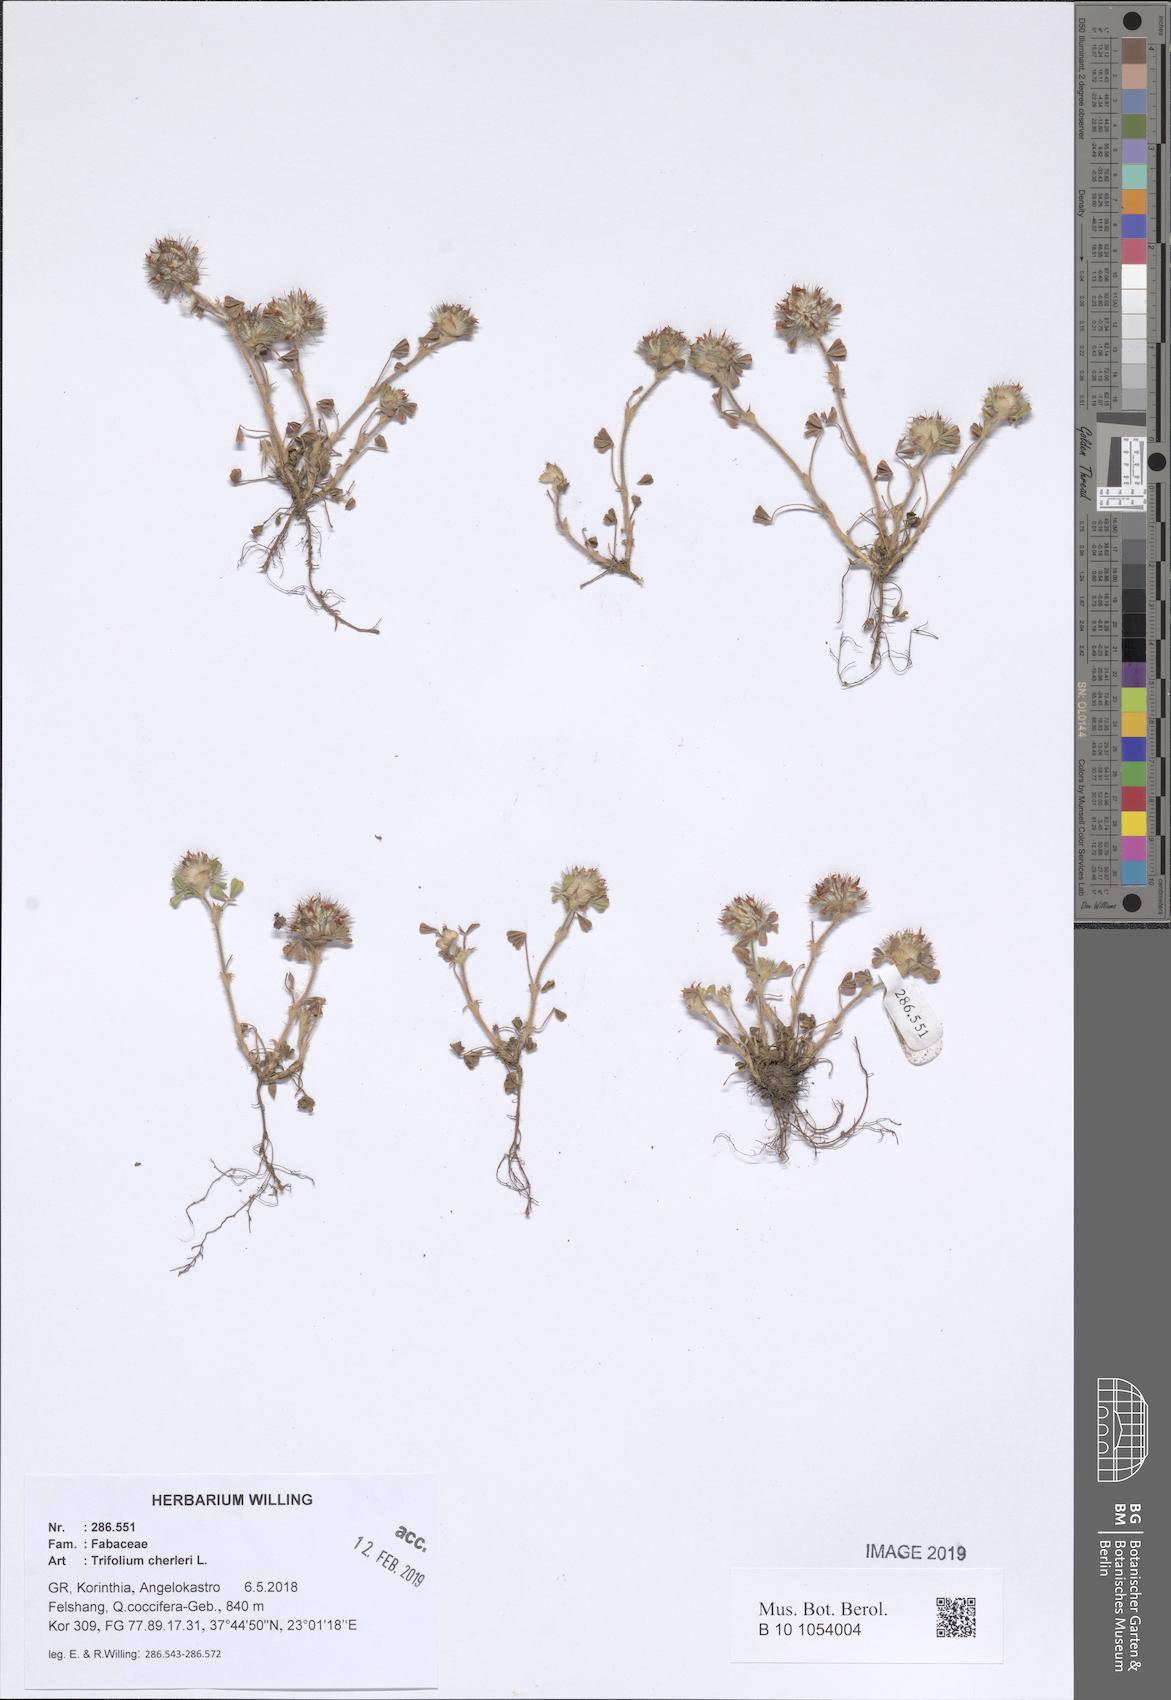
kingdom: Plantae
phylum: Tracheophyta
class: Magnoliopsida
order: Fabales
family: Fabaceae
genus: Trifolium
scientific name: Trifolium cherleri
